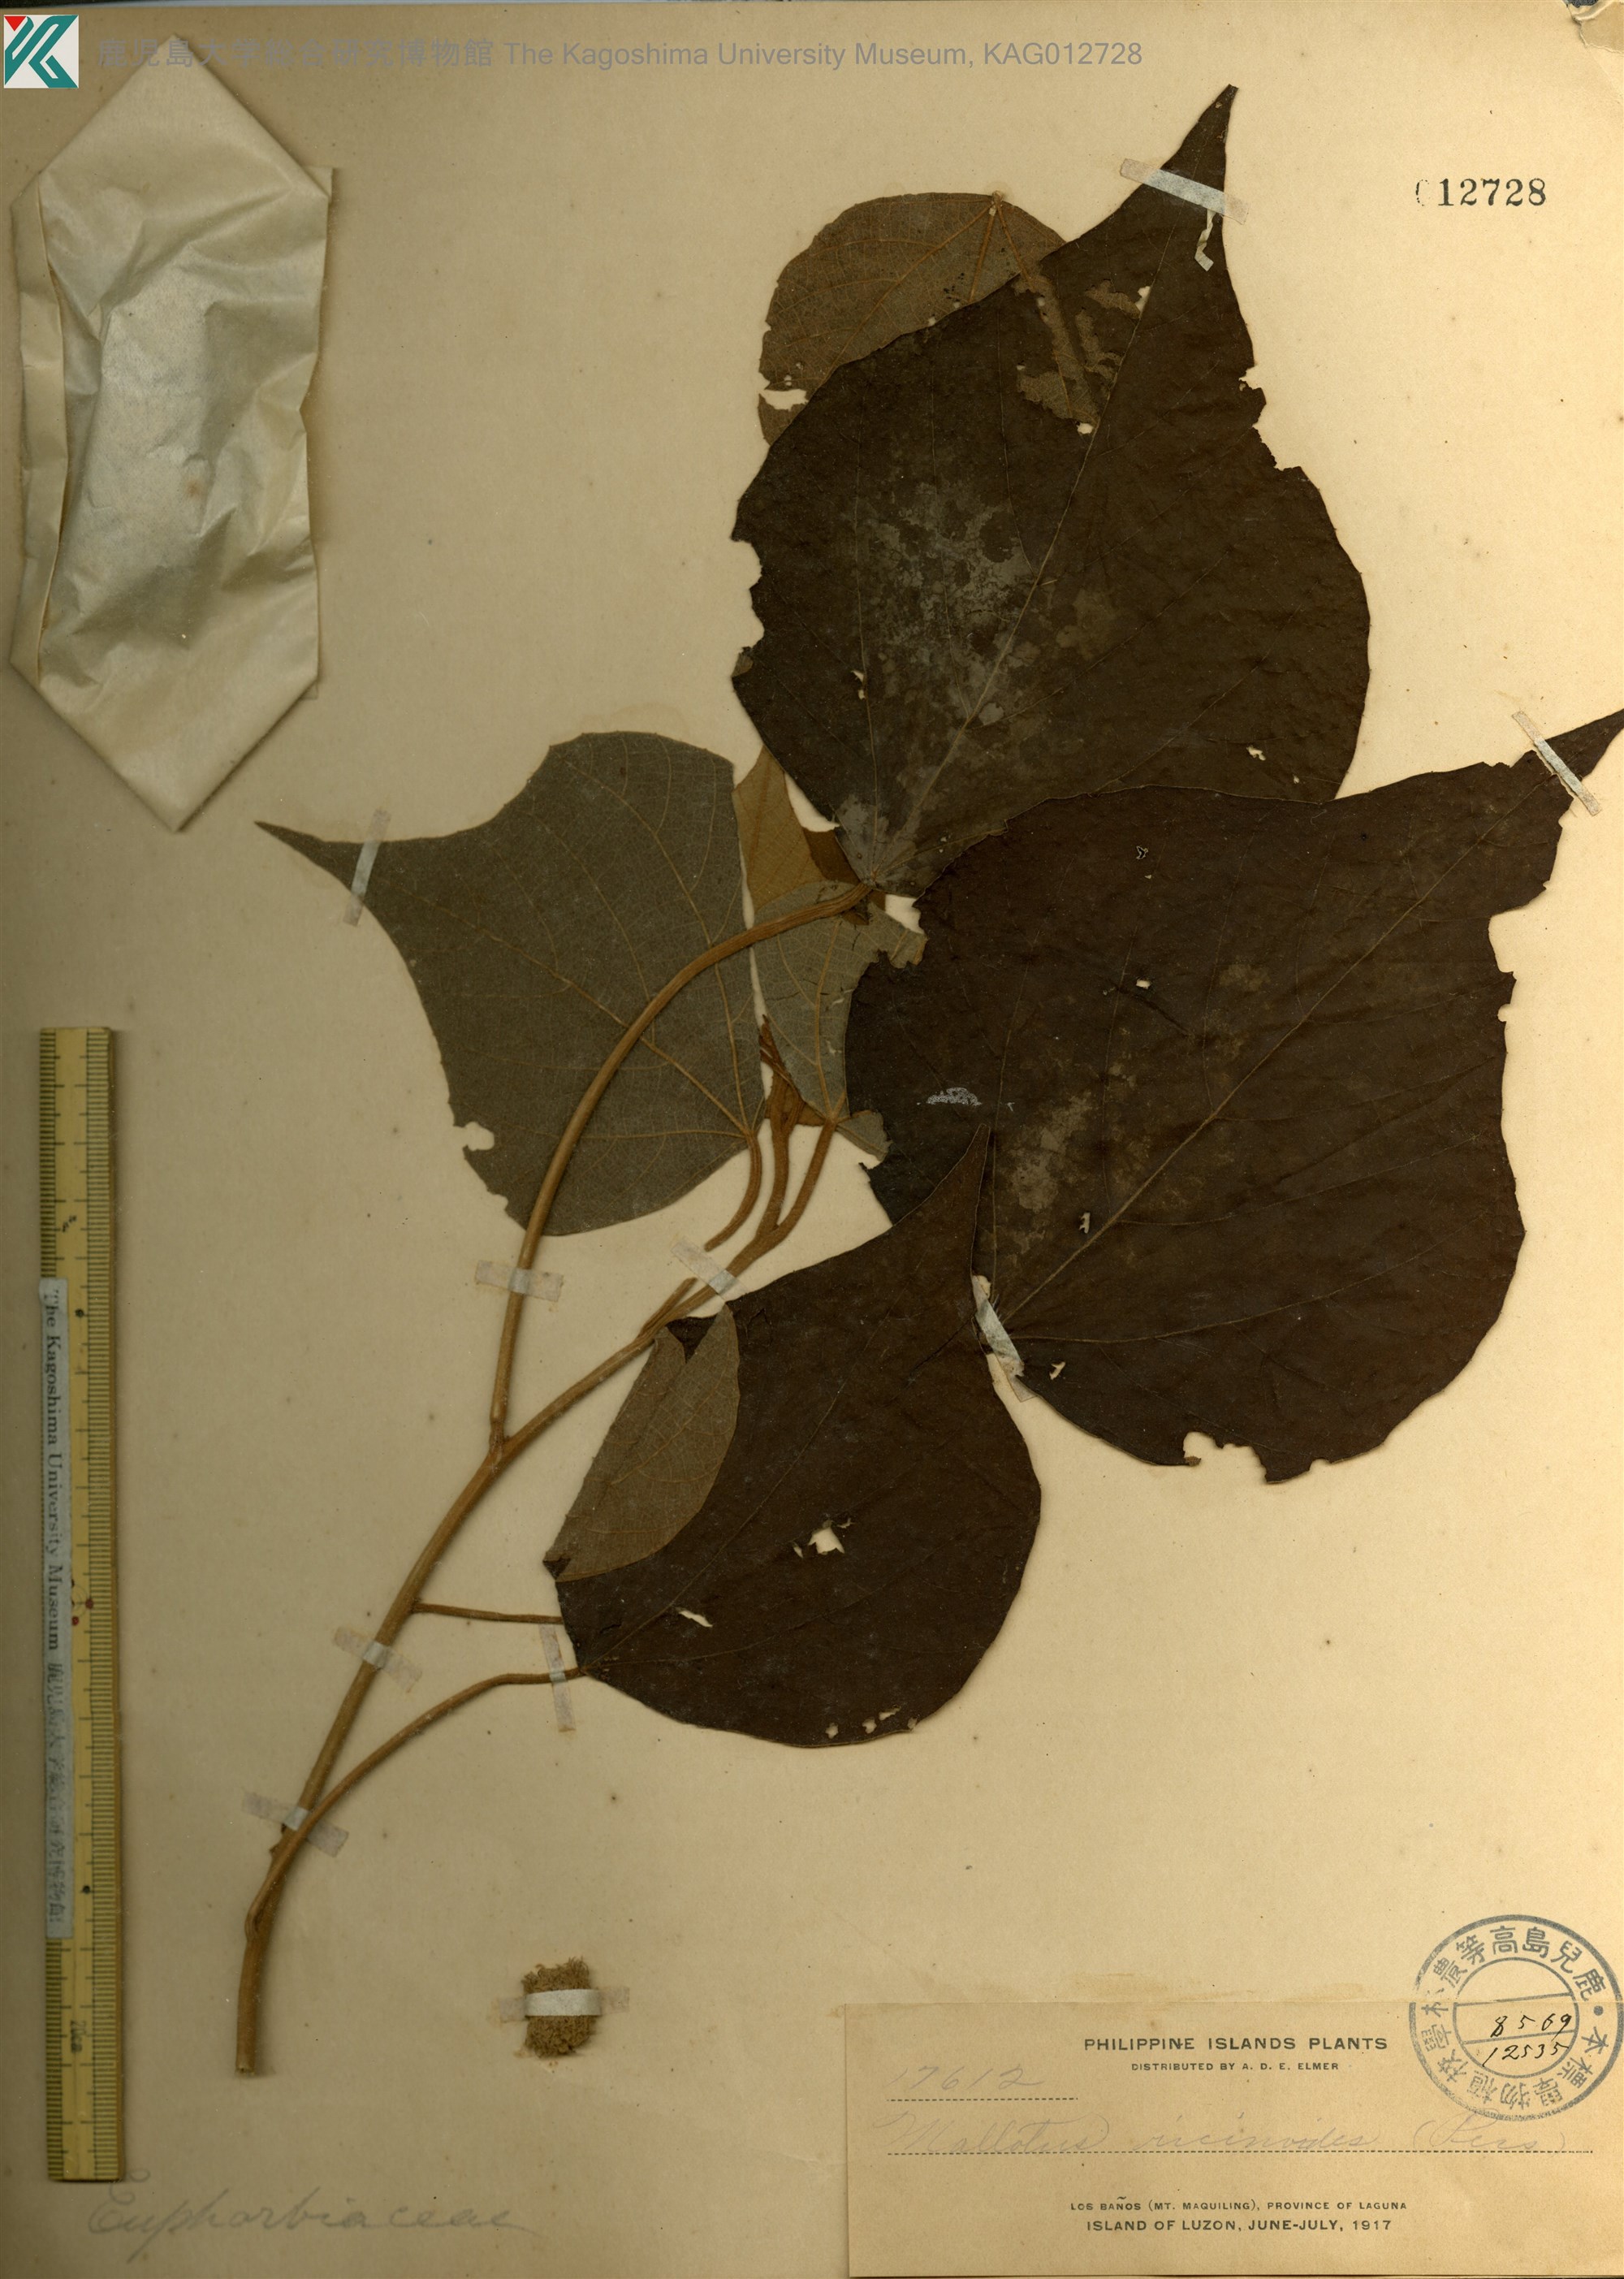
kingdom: Plantae
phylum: Tracheophyta
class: Magnoliopsida
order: Malpighiales
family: Euphorbiaceae
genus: Mallotus
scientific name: Mallotus mollissimus
